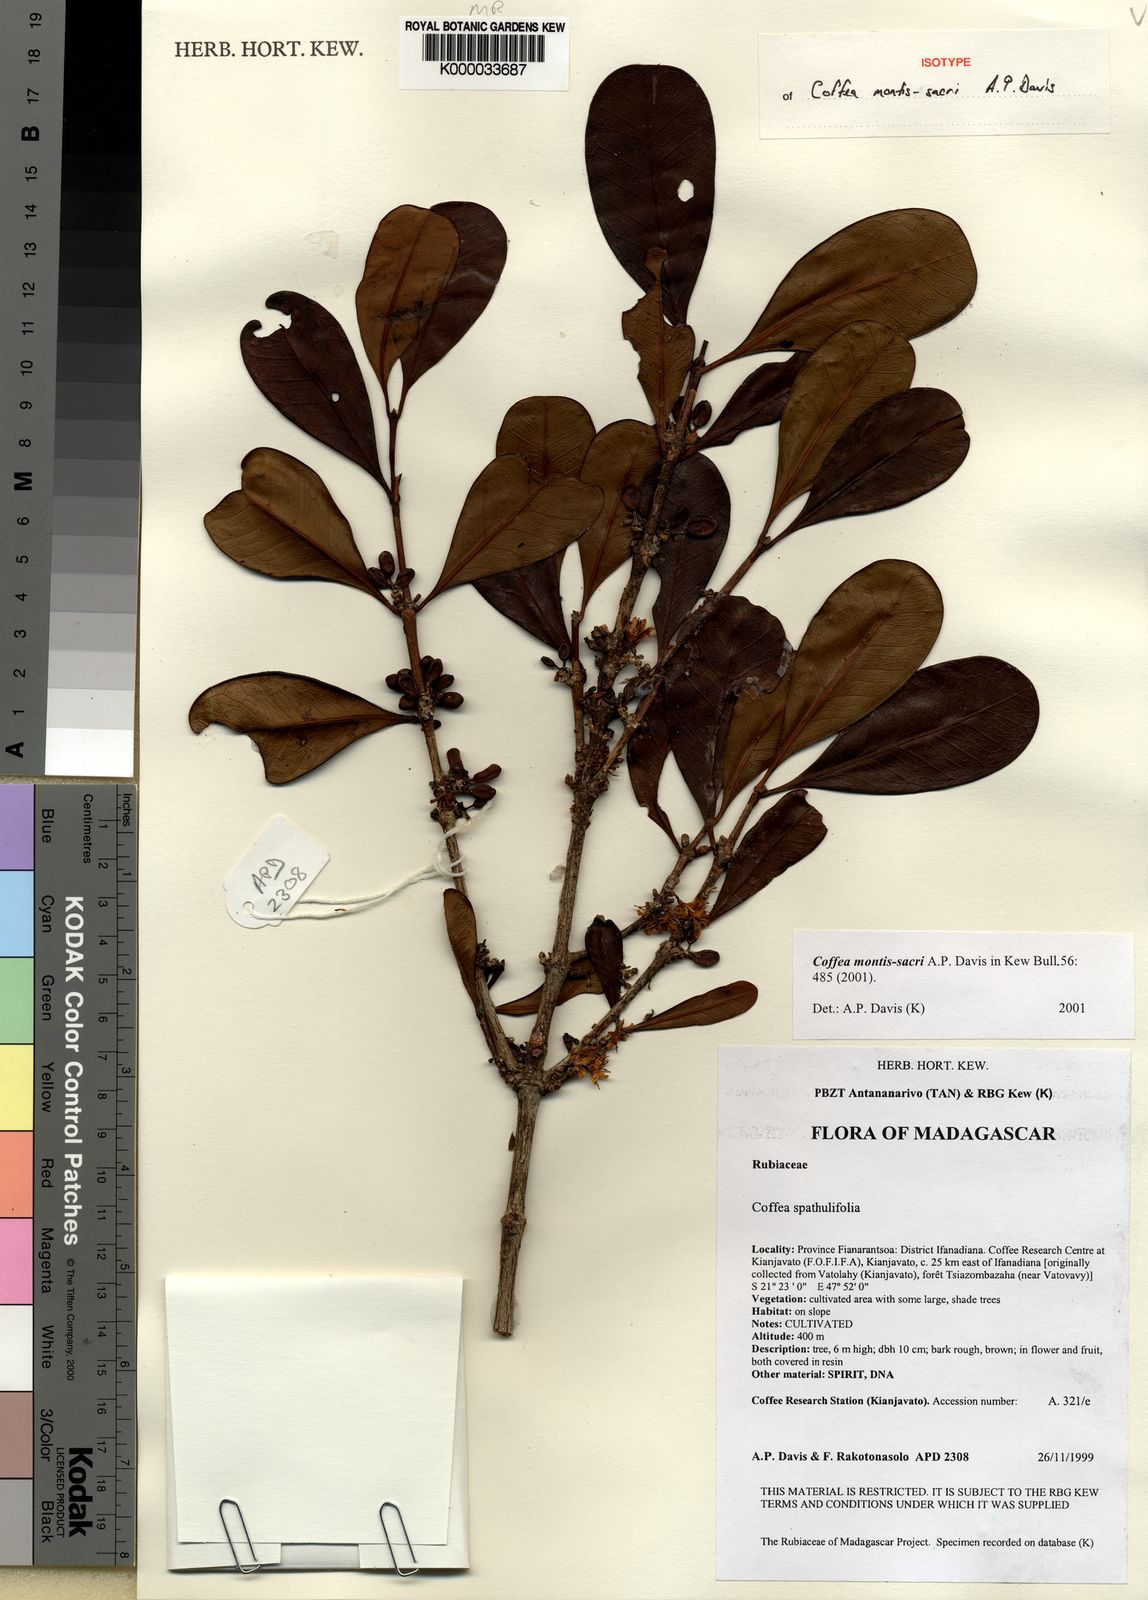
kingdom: Plantae
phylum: Tracheophyta
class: Magnoliopsida
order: Gentianales
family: Rubiaceae
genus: Coffea
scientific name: Coffea montis-sacri
